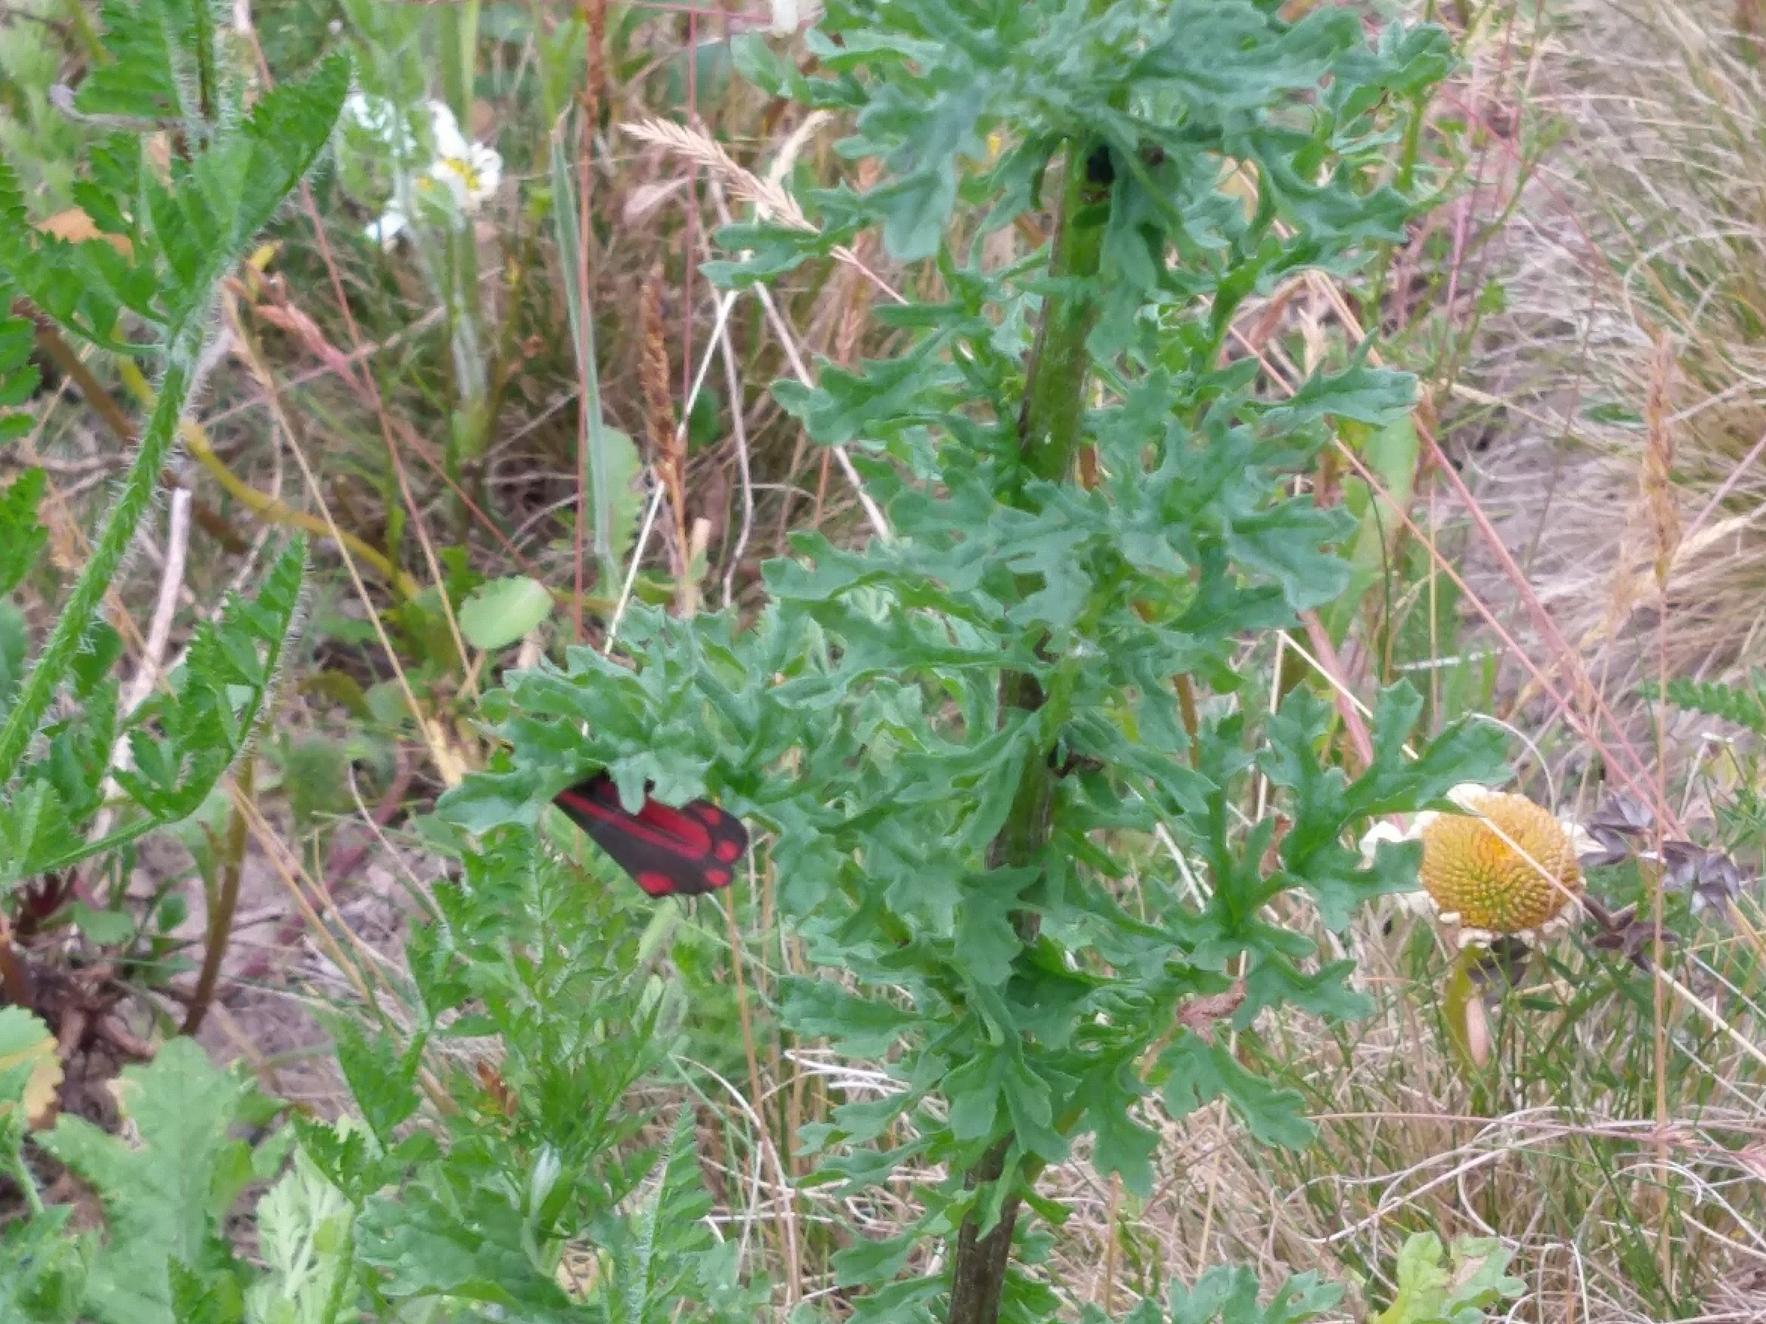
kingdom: Animalia
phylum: Arthropoda
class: Insecta
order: Lepidoptera
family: Erebidae
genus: Tyria
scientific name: Tyria jacobaeae
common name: Blodplet
